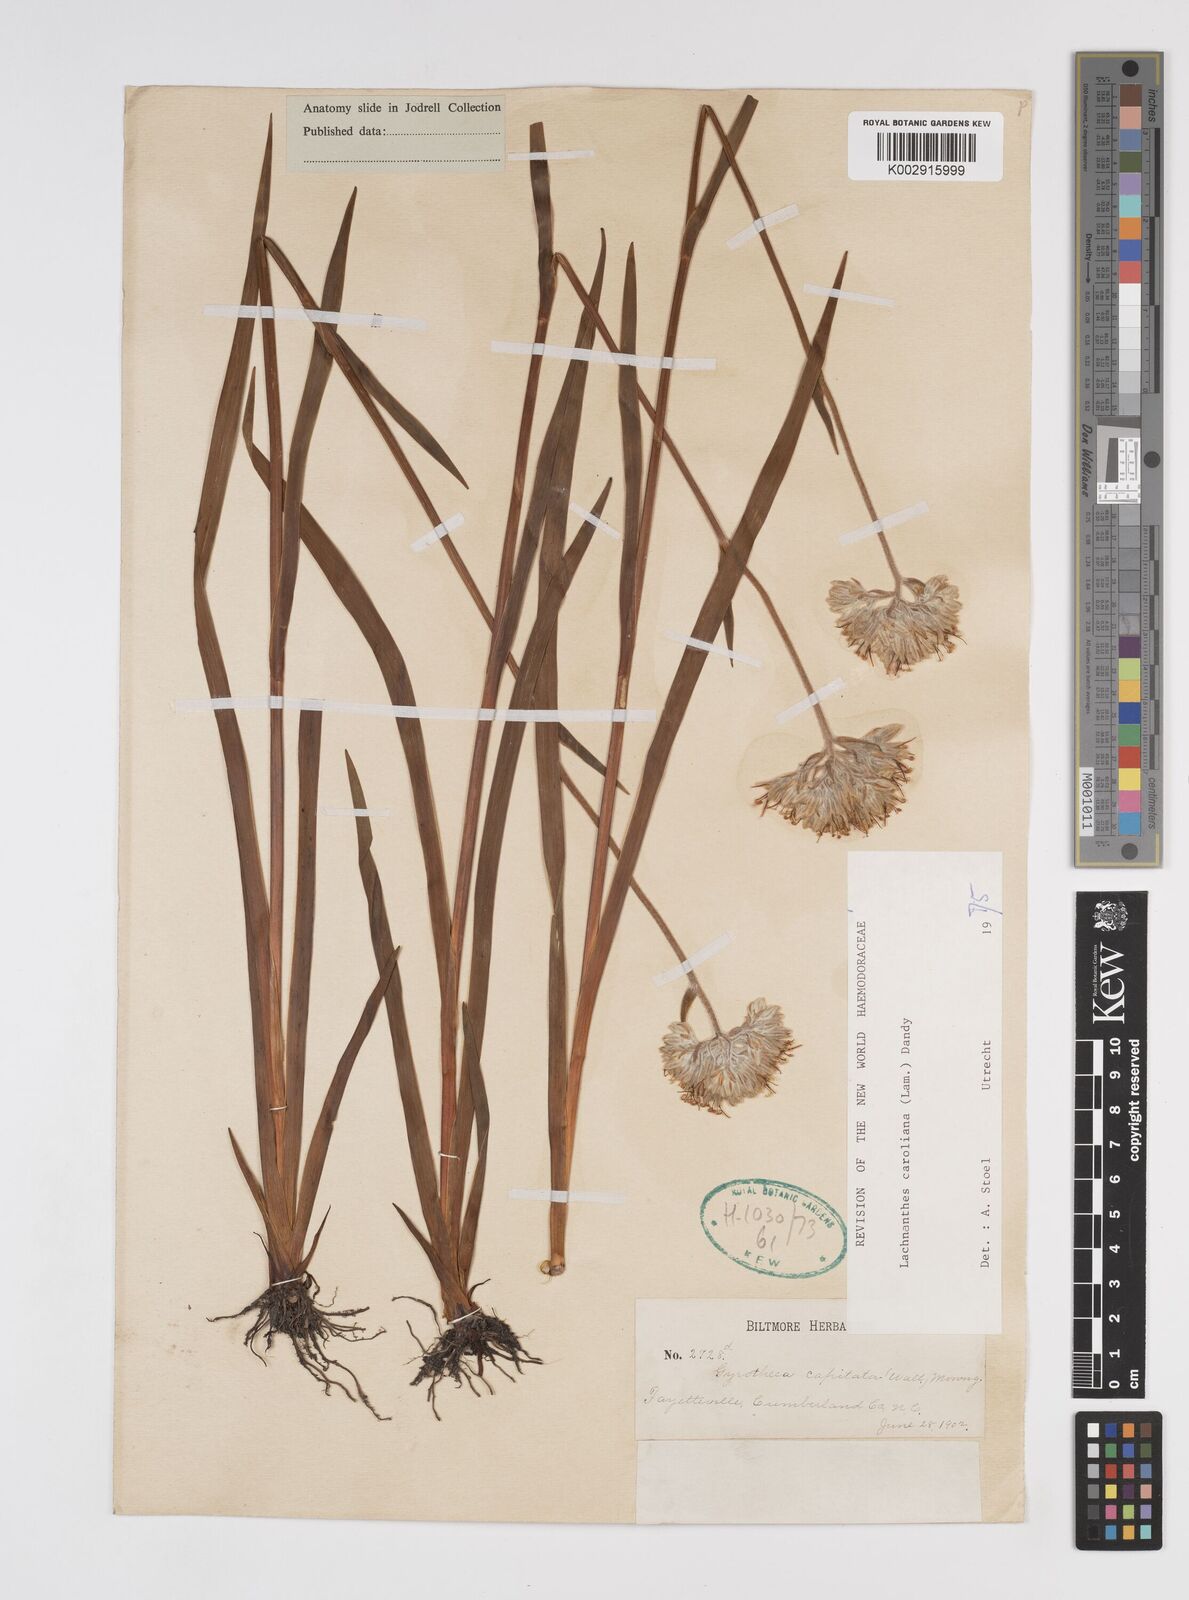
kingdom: Plantae
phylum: Tracheophyta
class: Liliopsida
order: Commelinales
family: Haemodoraceae
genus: Lachnanthes
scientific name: Lachnanthes caroliniana
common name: Carolina redroot
